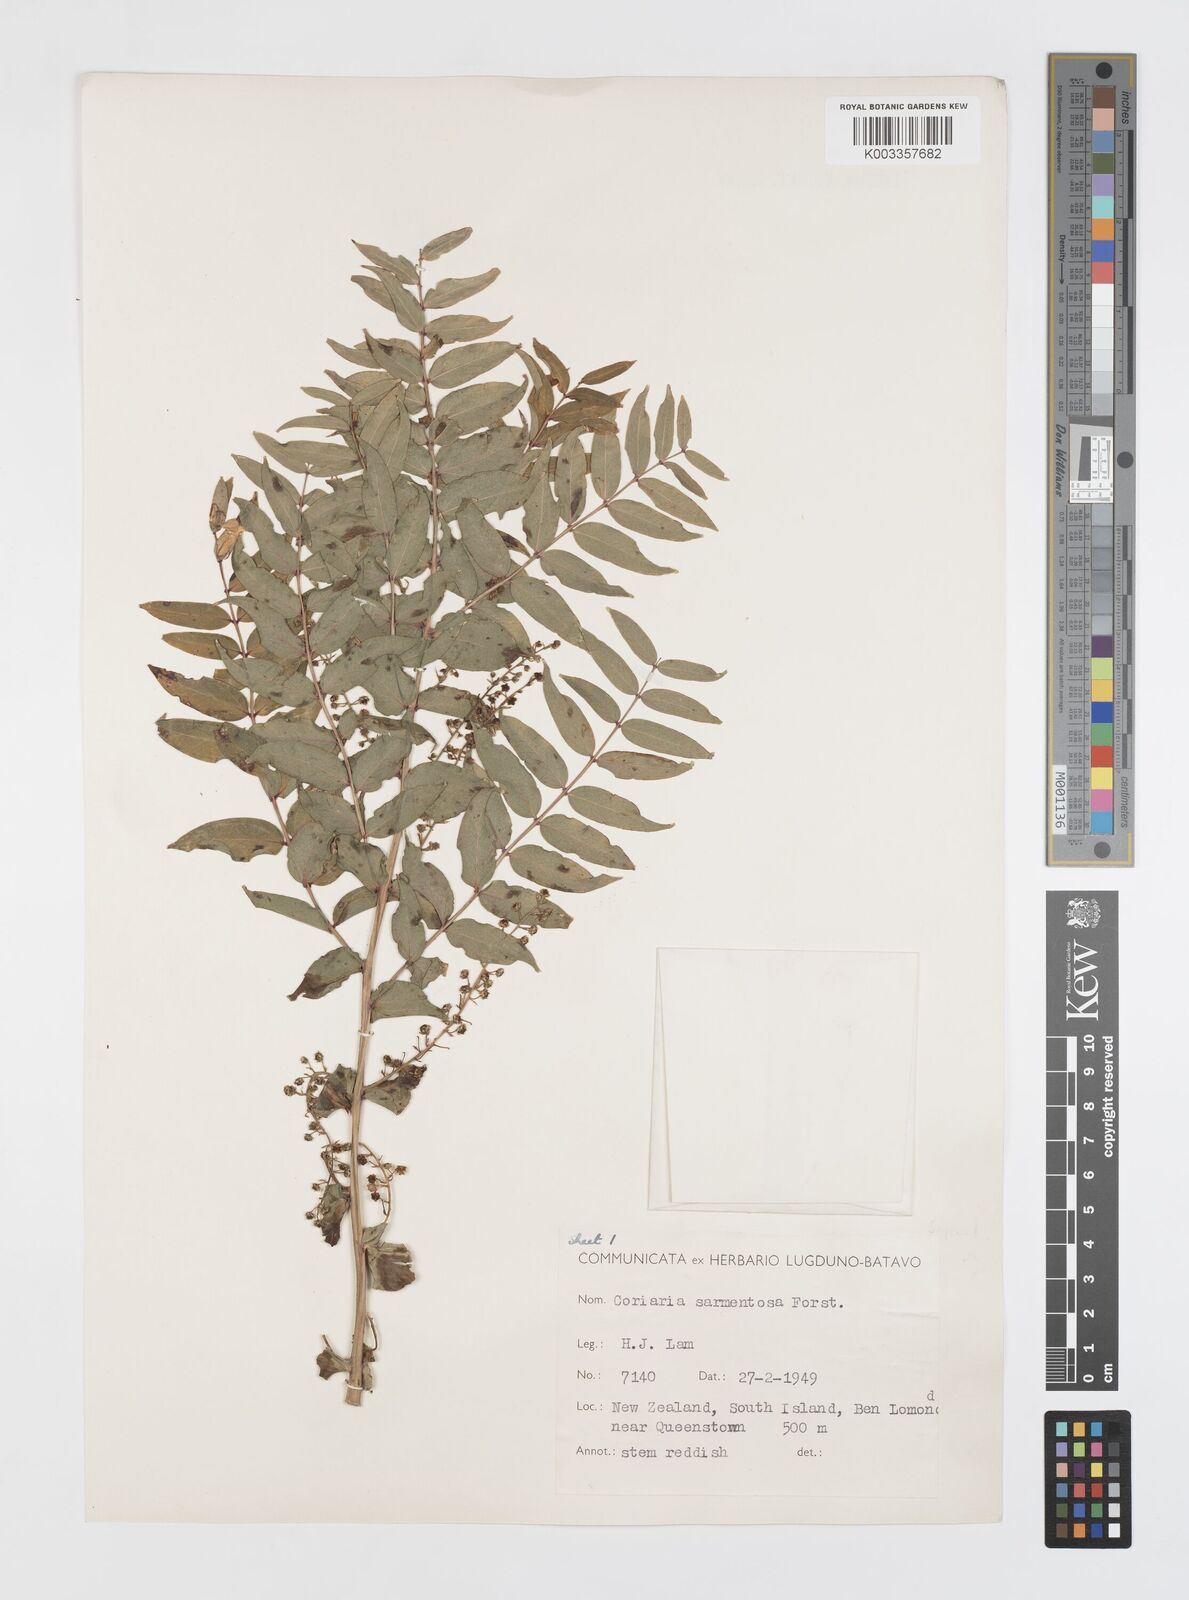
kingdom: Plantae
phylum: Tracheophyta
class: Magnoliopsida
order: Cucurbitales
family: Coriariaceae
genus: Coriaria
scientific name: Coriaria sarmentosa
